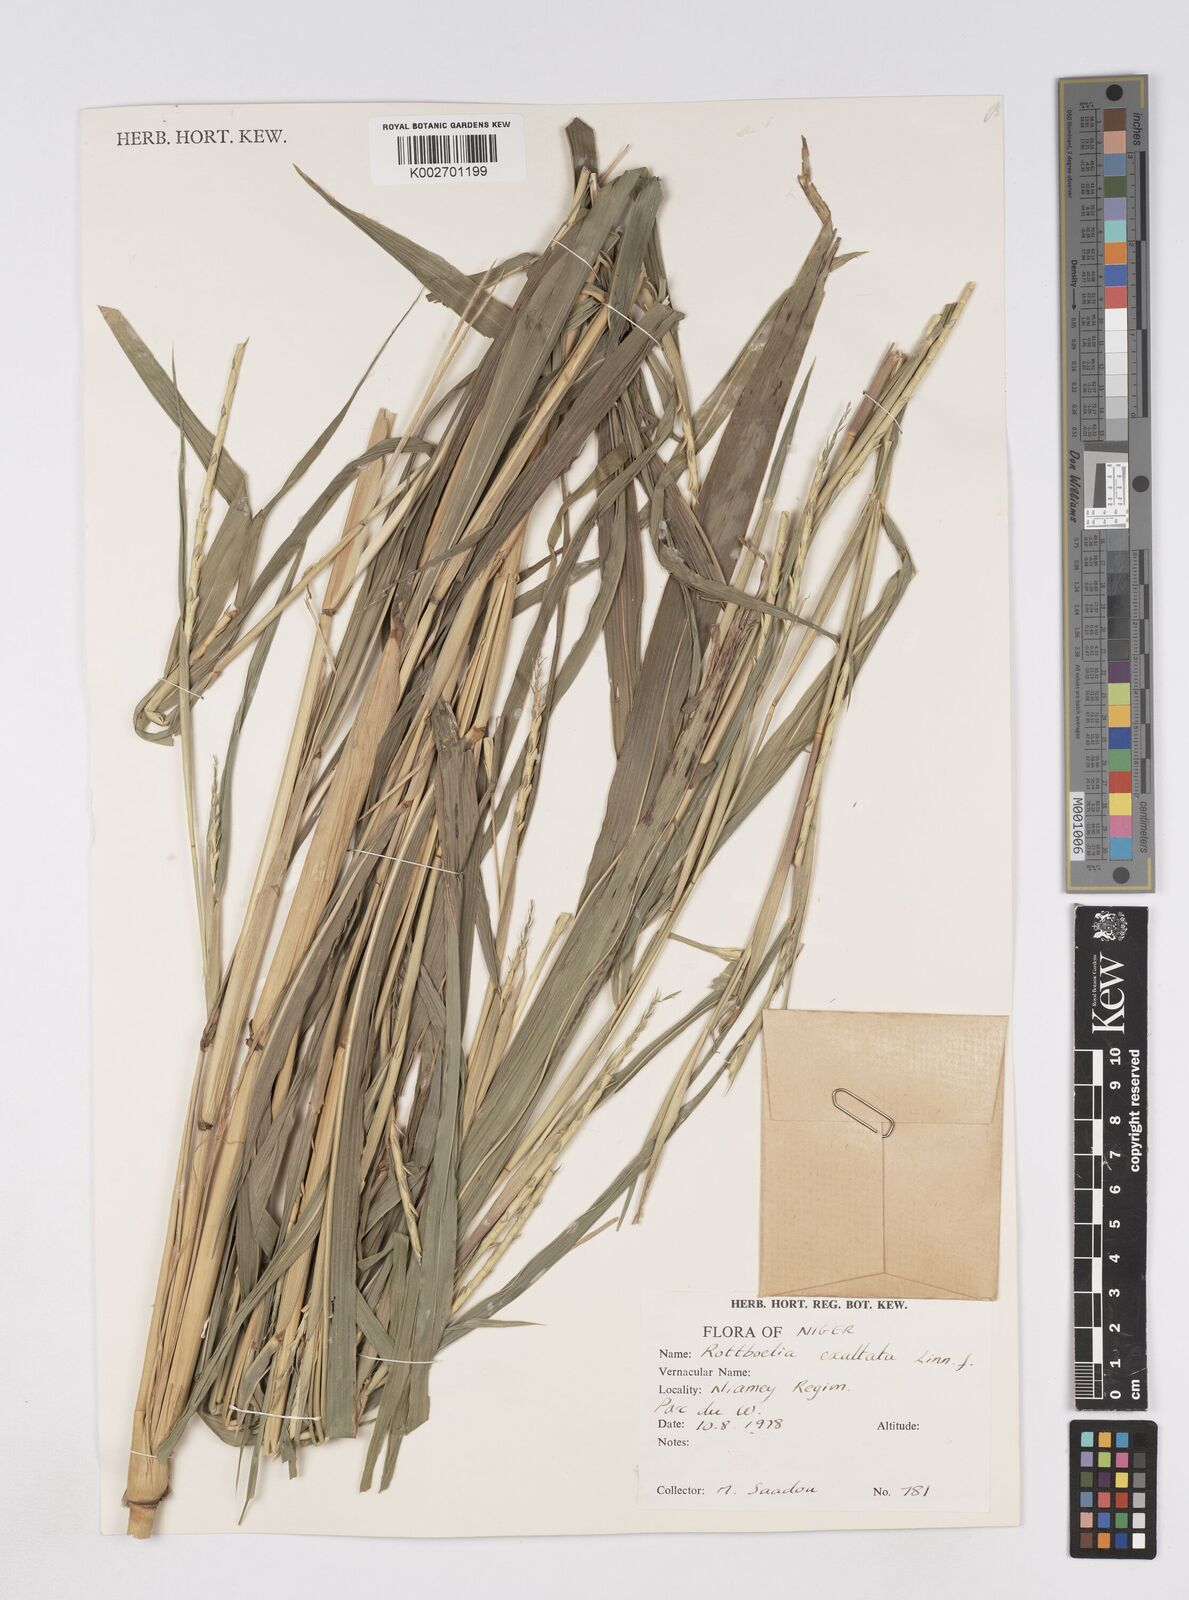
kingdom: Plantae
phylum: Tracheophyta
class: Liliopsida
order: Poales
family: Poaceae
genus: Ophiuros
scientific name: Ophiuros exaltatus
